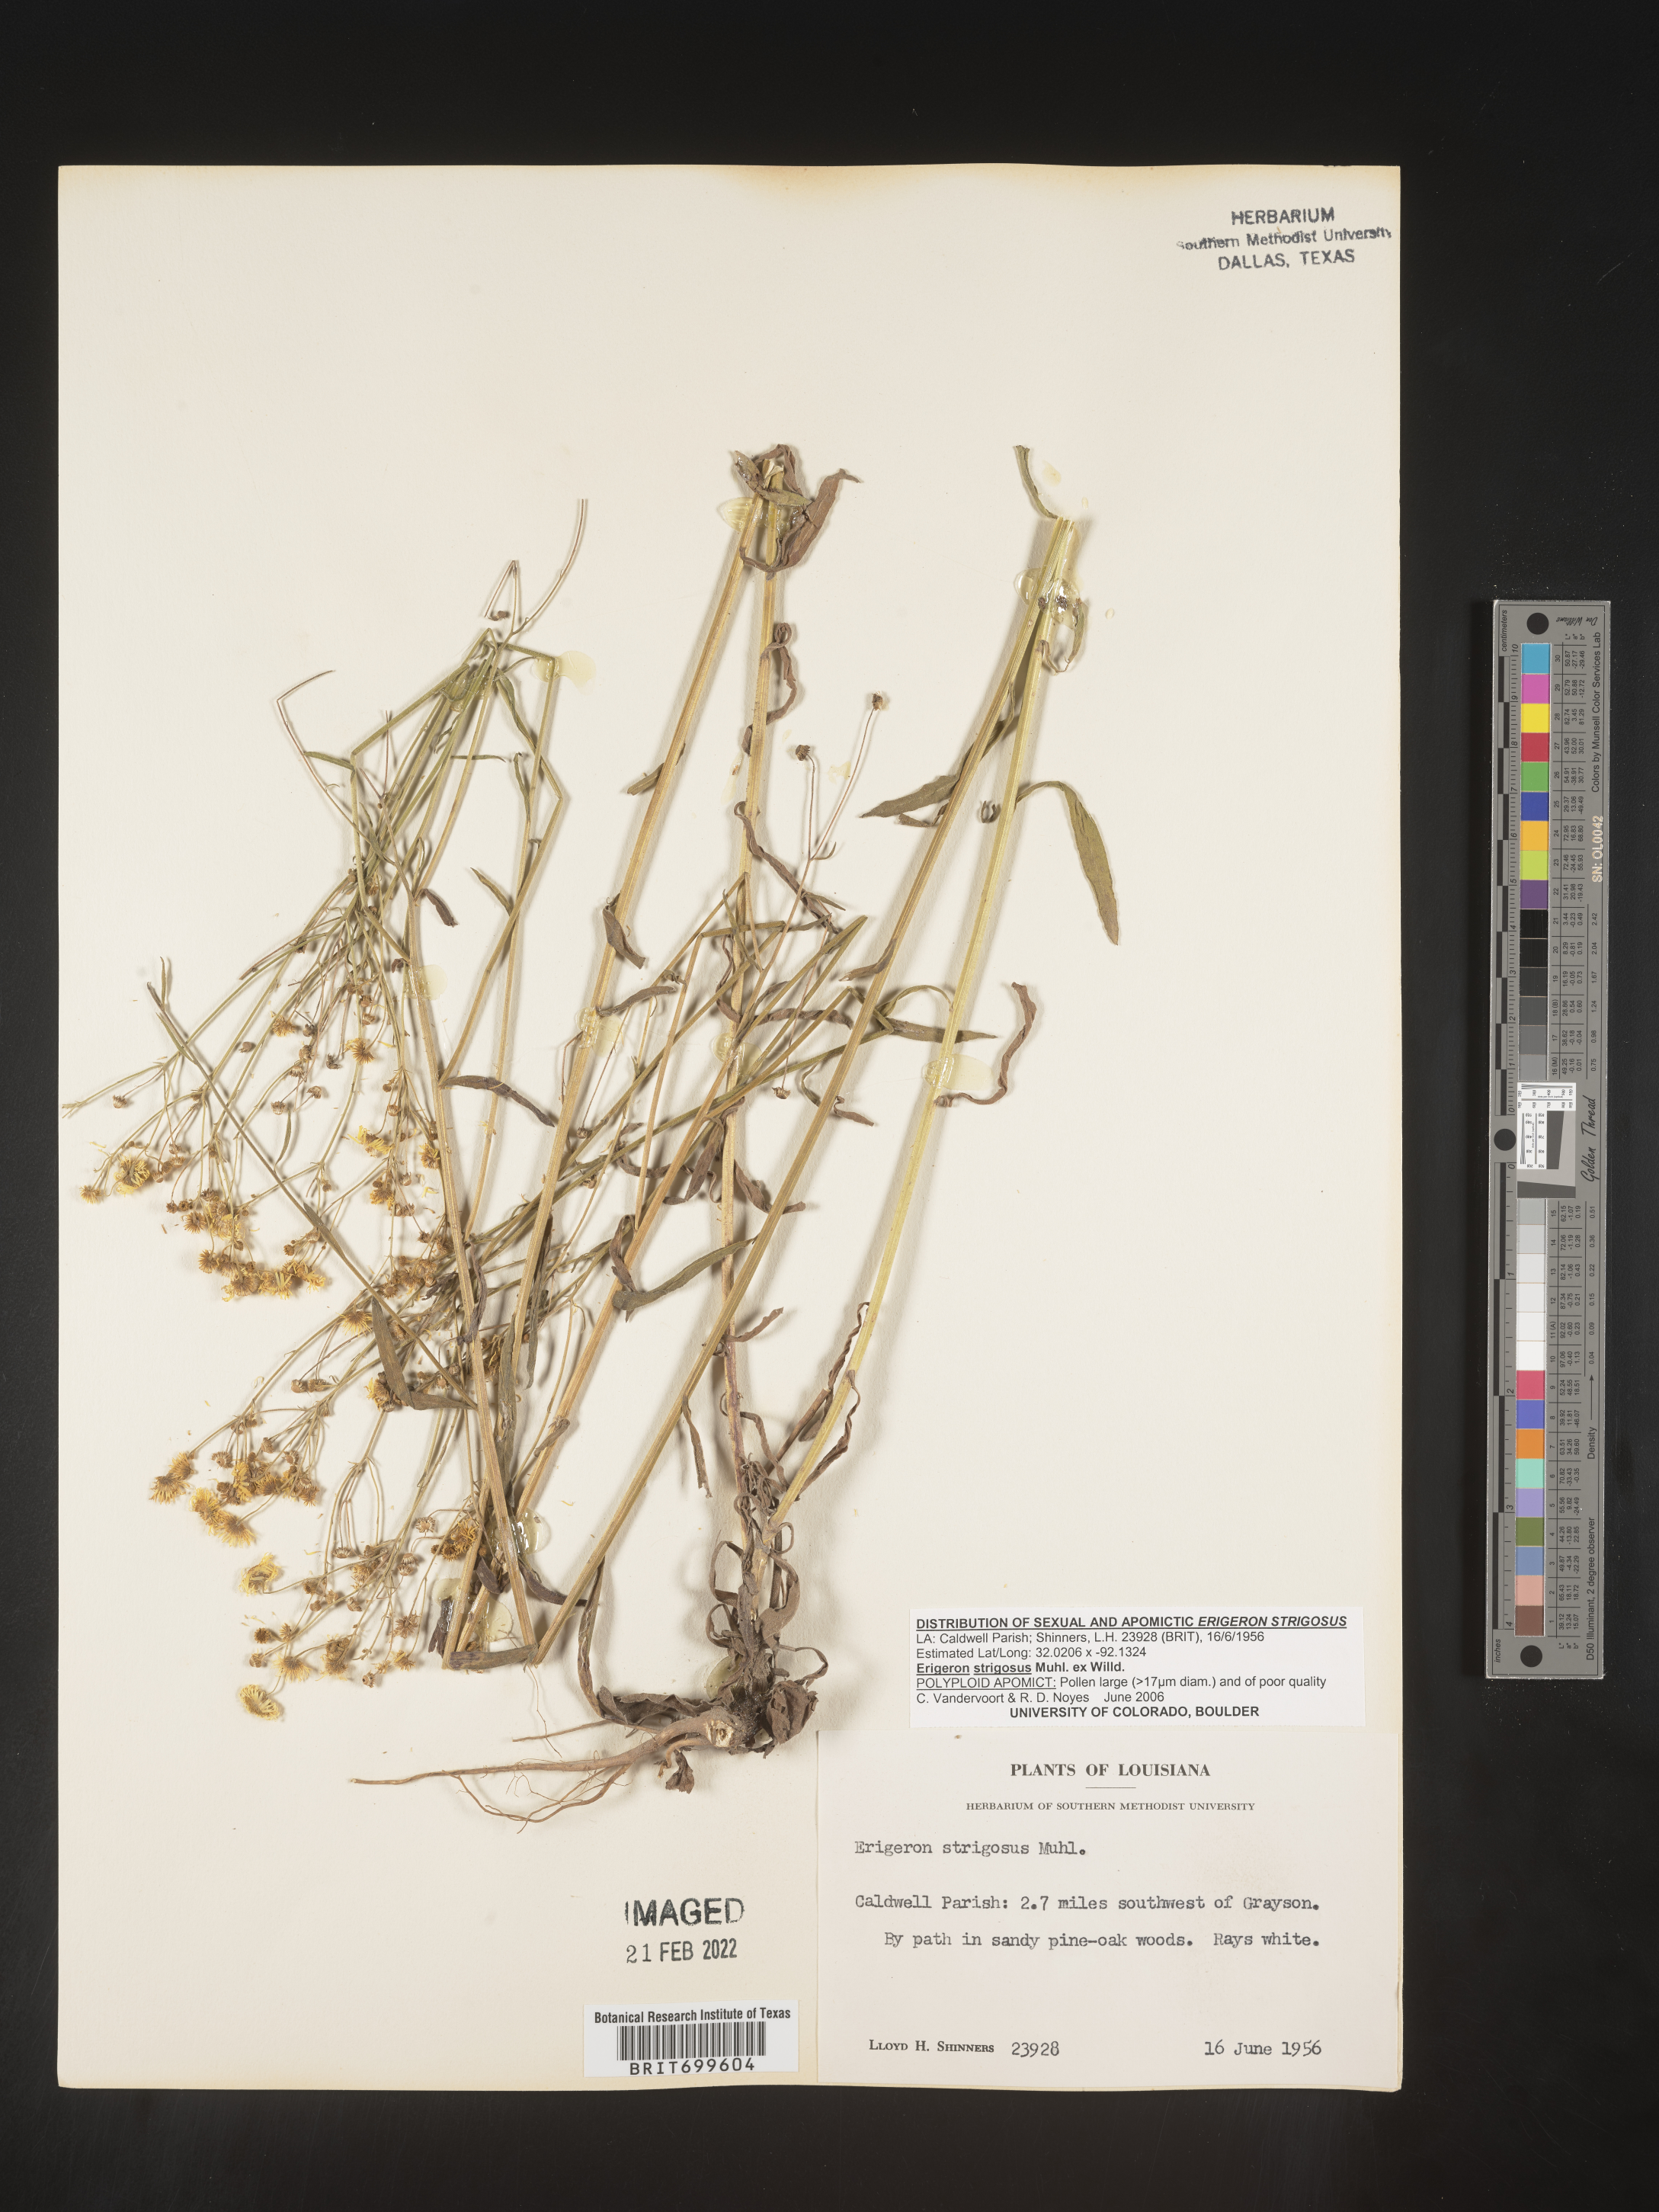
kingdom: Plantae
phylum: Tracheophyta
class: Magnoliopsida
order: Asterales
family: Asteraceae
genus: Erigeron
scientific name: Erigeron strigosus
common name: Common eastern fleabane
